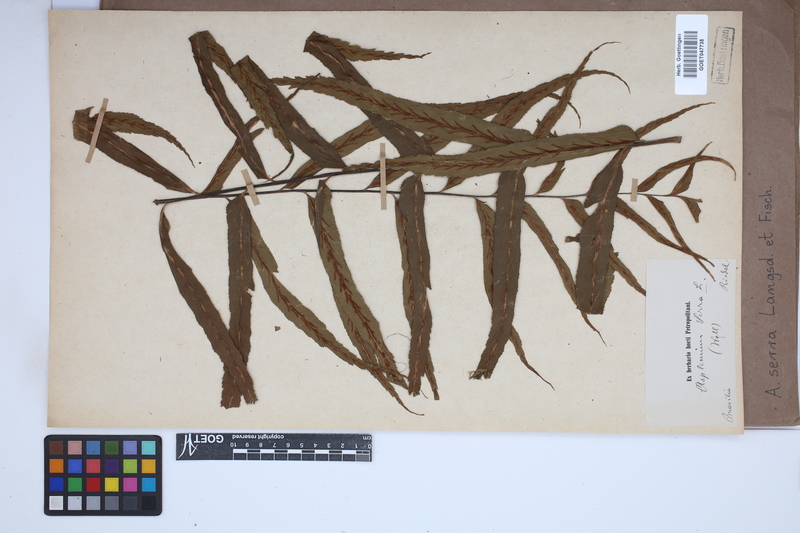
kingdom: Plantae
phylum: Tracheophyta
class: Polypodiopsida
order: Polypodiales
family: Aspleniaceae
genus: Asplenium
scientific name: Asplenium serra
